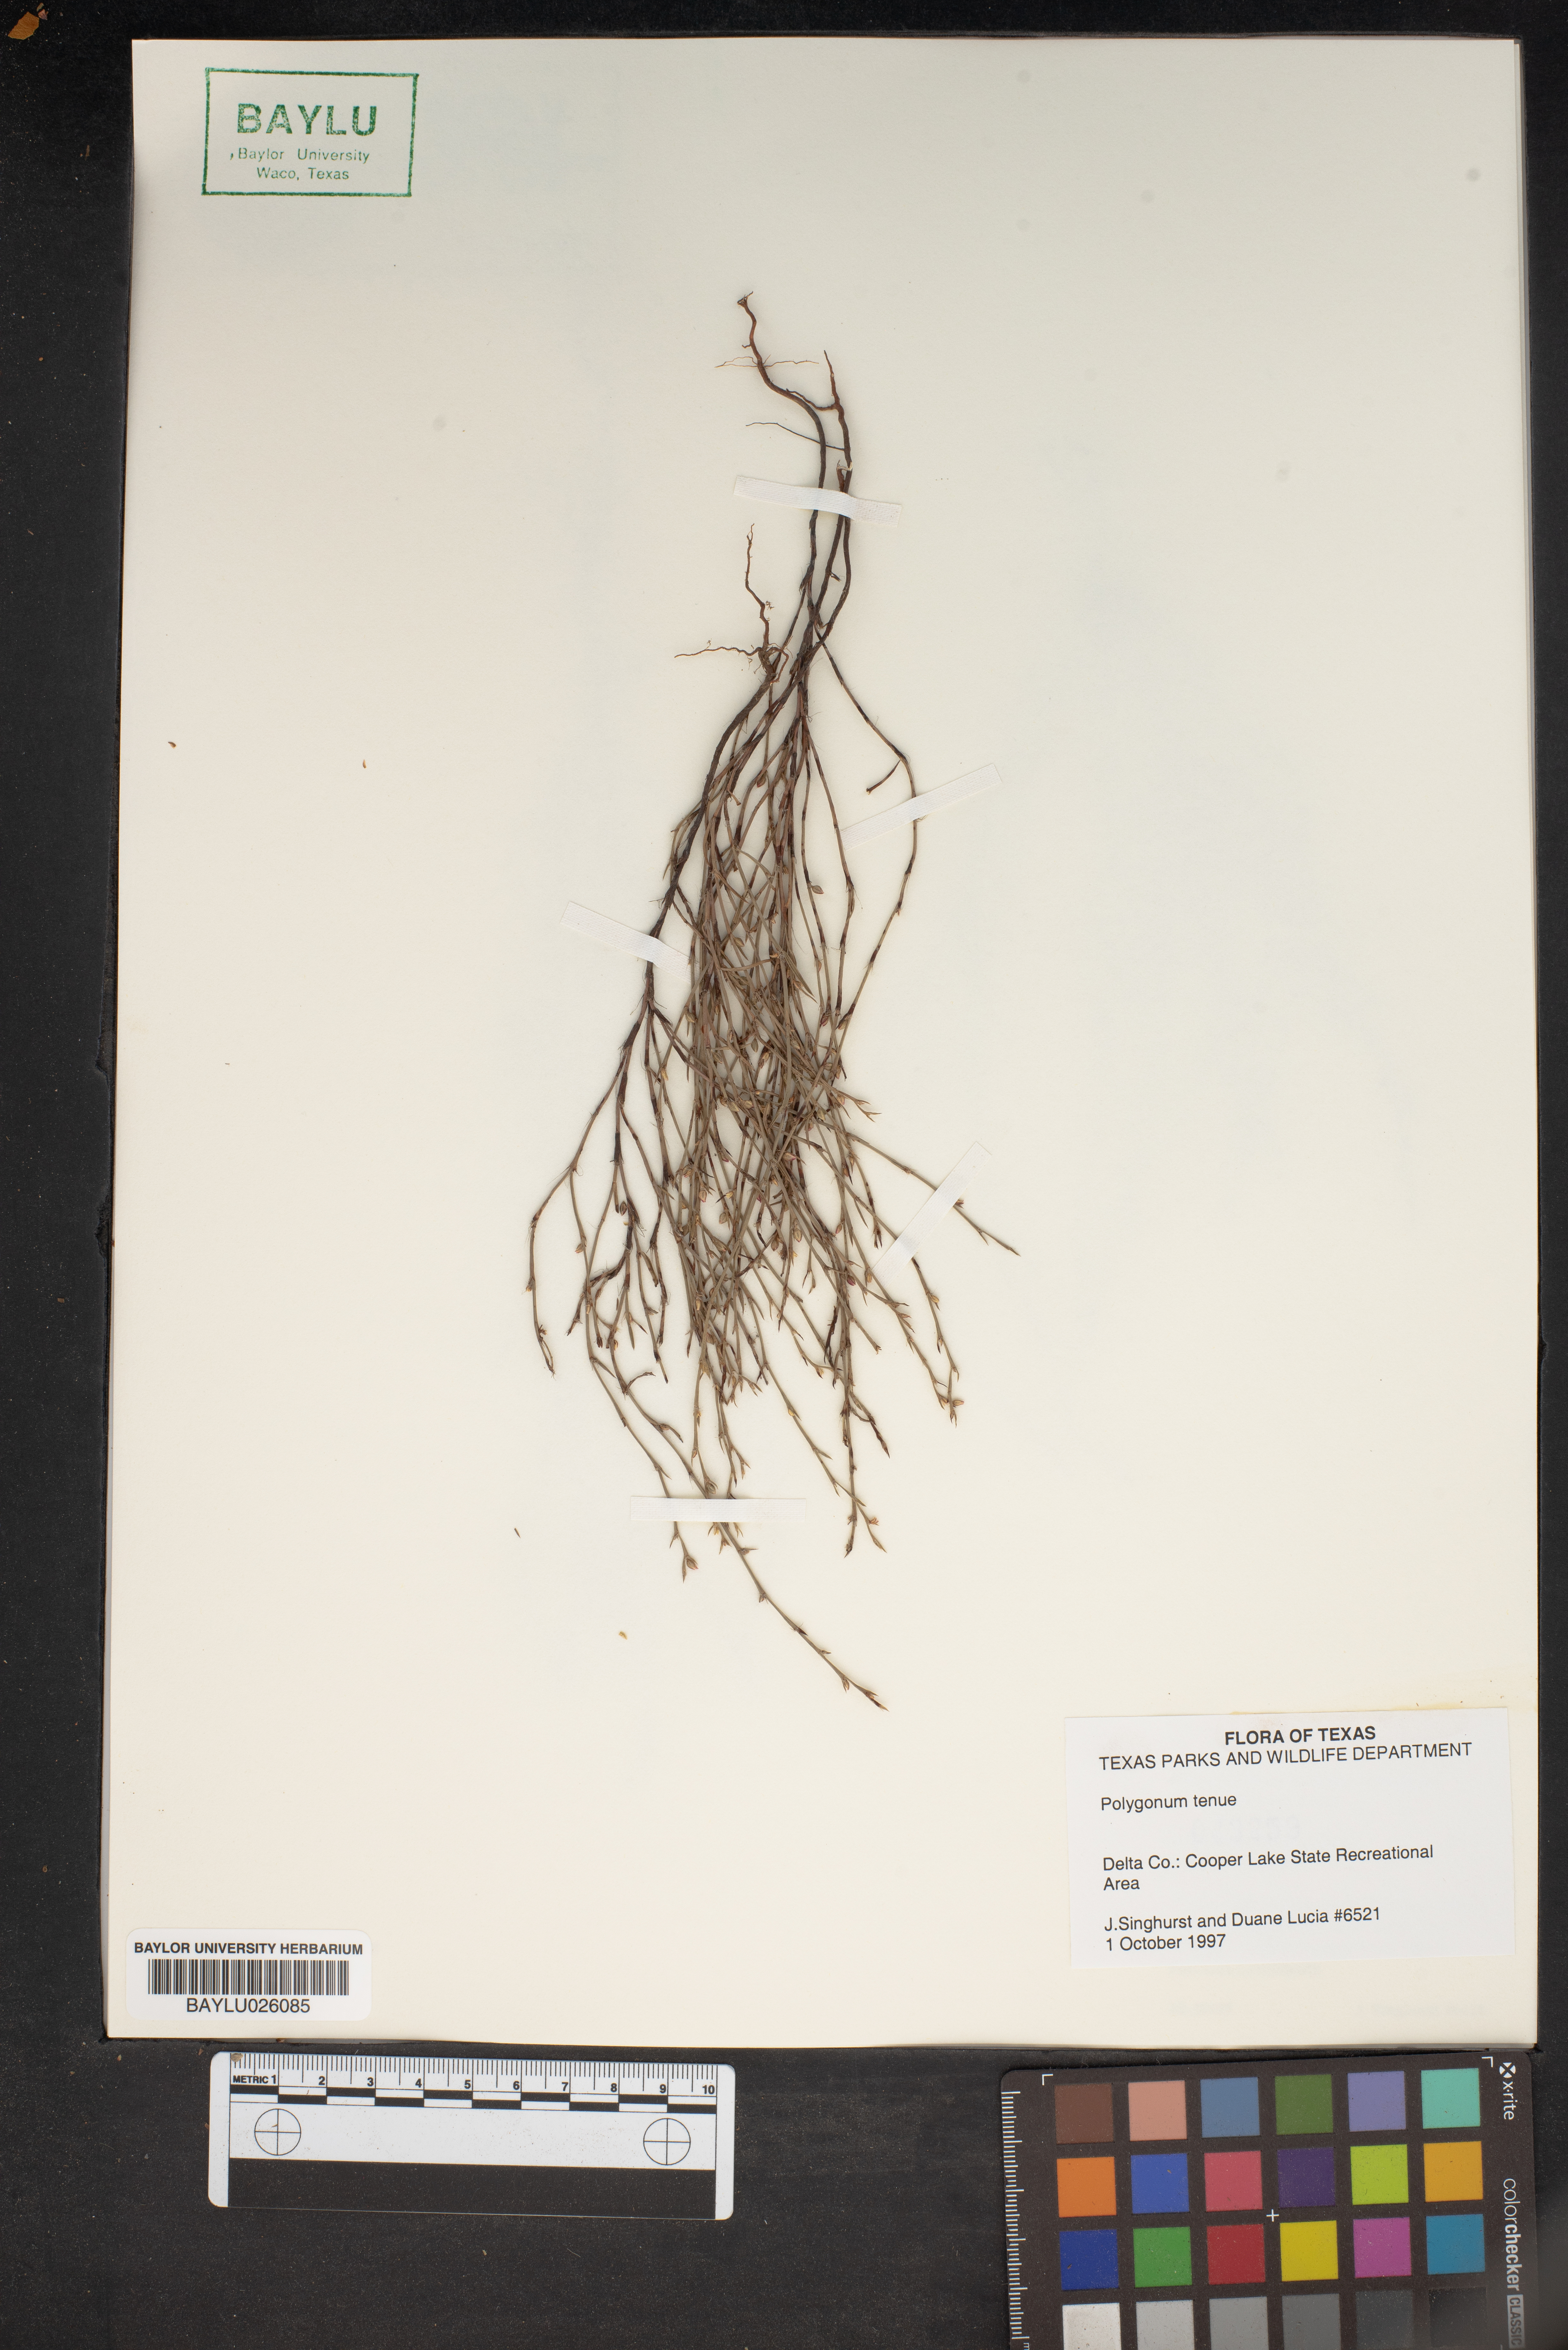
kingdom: Plantae
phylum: Tracheophyta
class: Magnoliopsida
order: Caryophyllales
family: Polygonaceae
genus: Polygonum
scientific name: Polygonum tenue
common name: Pleat-leaved knotweed
